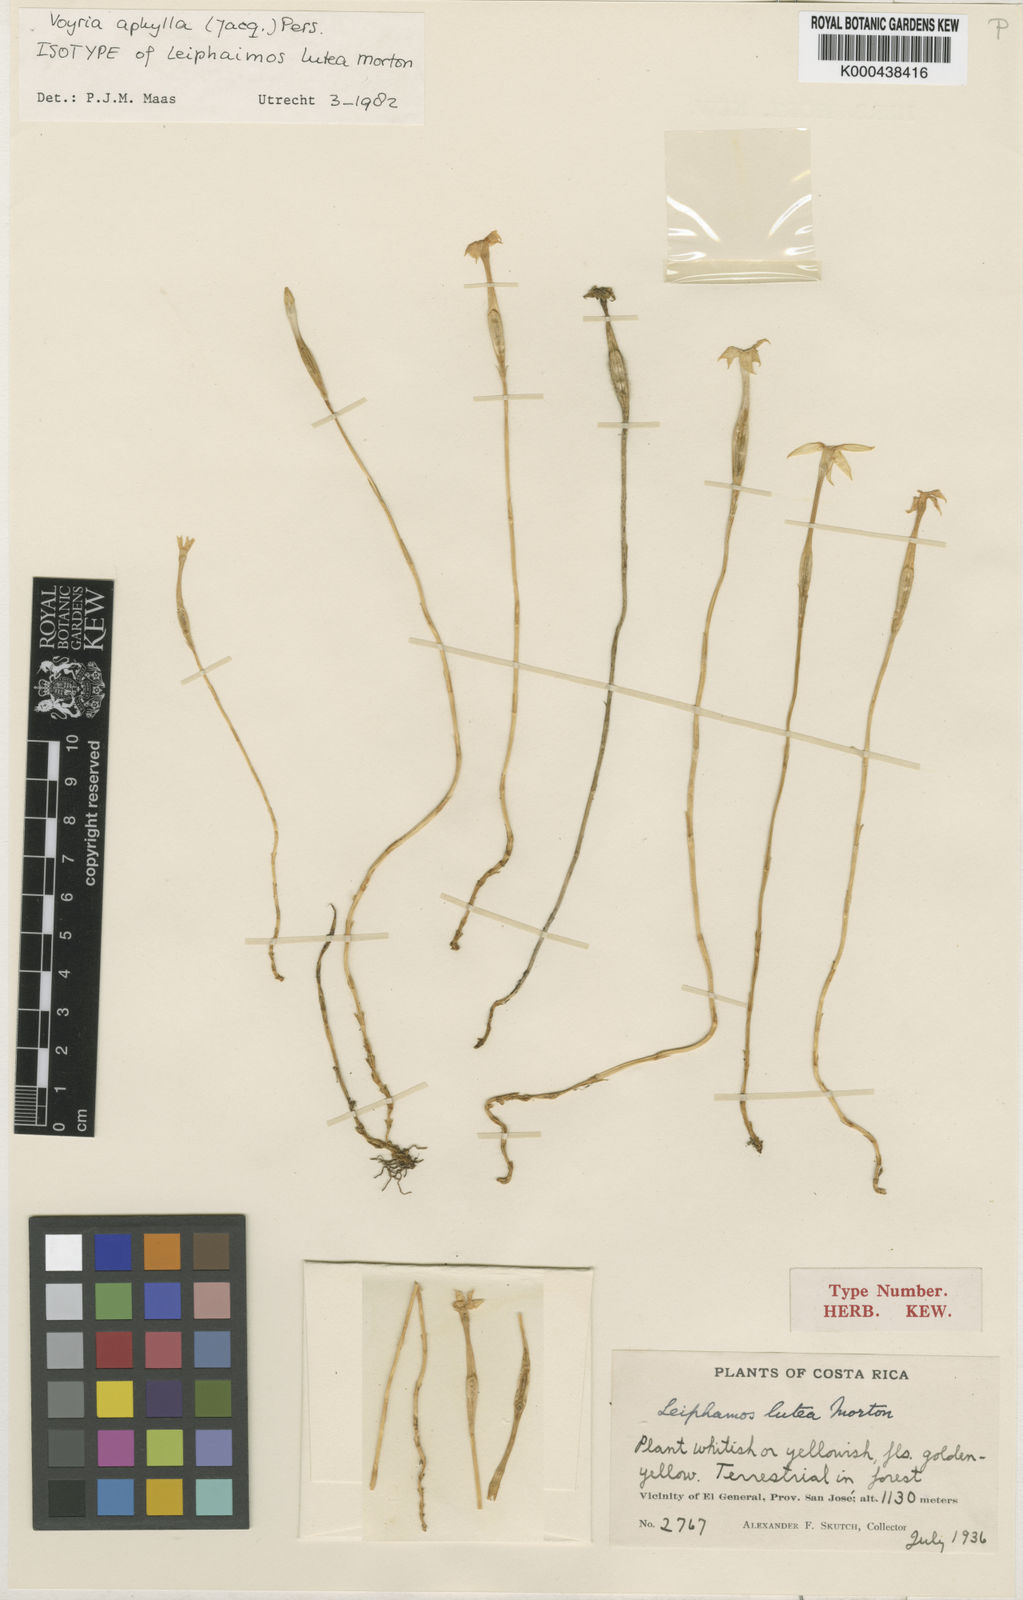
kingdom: Plantae
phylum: Tracheophyta
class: Magnoliopsida
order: Gentianales
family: Gentianaceae
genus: Voyria
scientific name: Voyria
